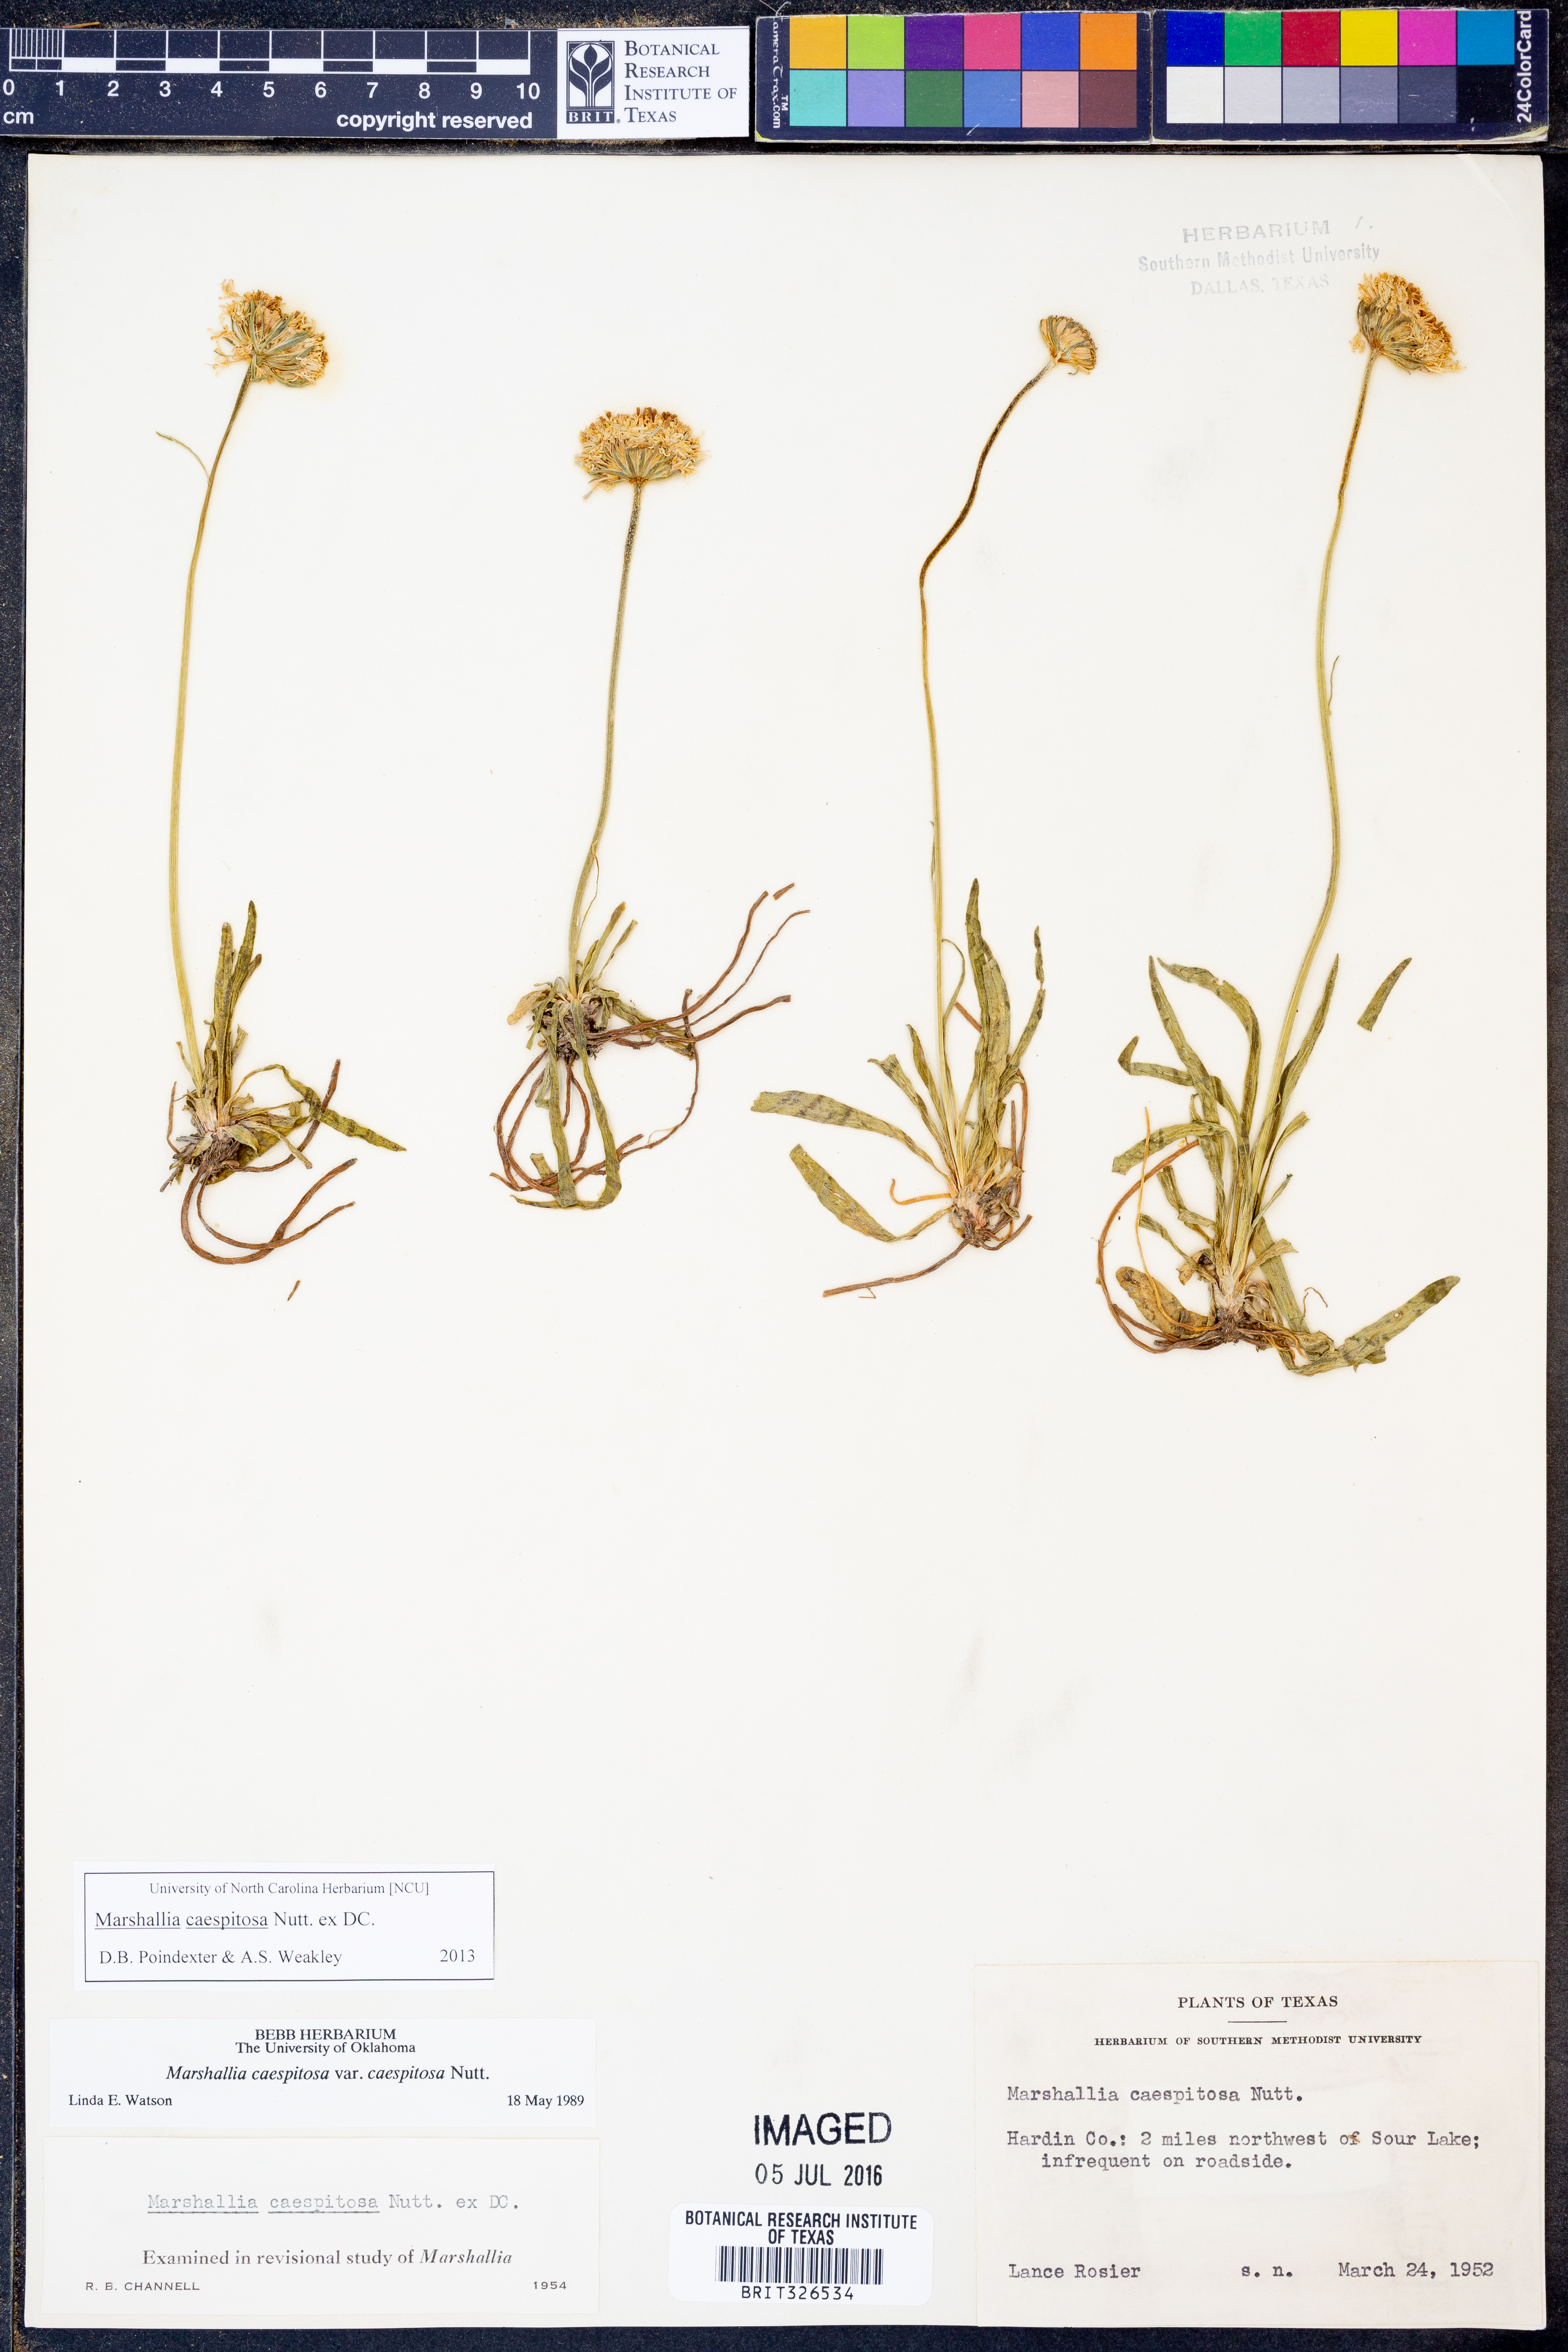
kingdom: Plantae
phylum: Tracheophyta
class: Magnoliopsida
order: Asterales
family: Asteraceae
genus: Marshallia
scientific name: Marshallia caespitosa
